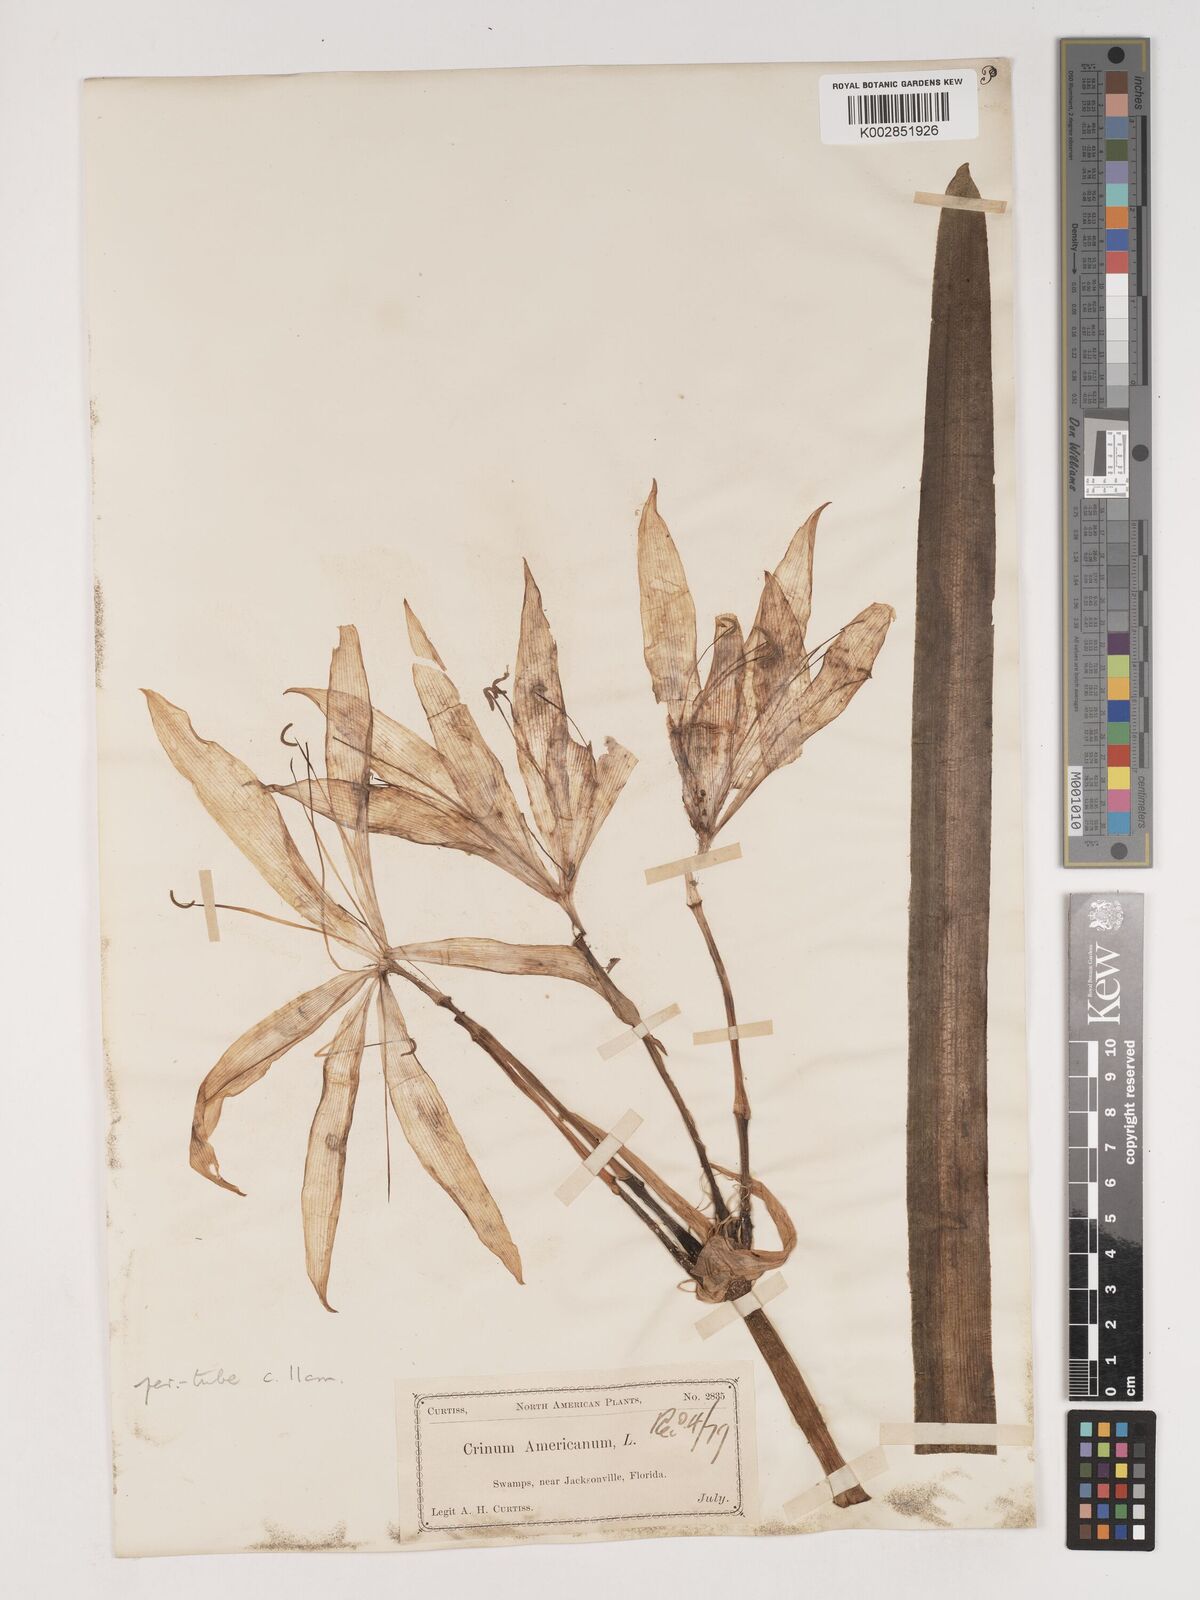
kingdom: Plantae
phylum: Tracheophyta
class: Liliopsida
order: Asparagales
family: Amaryllidaceae
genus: Crinum
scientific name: Crinum americanum
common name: Florida swamp-lily
